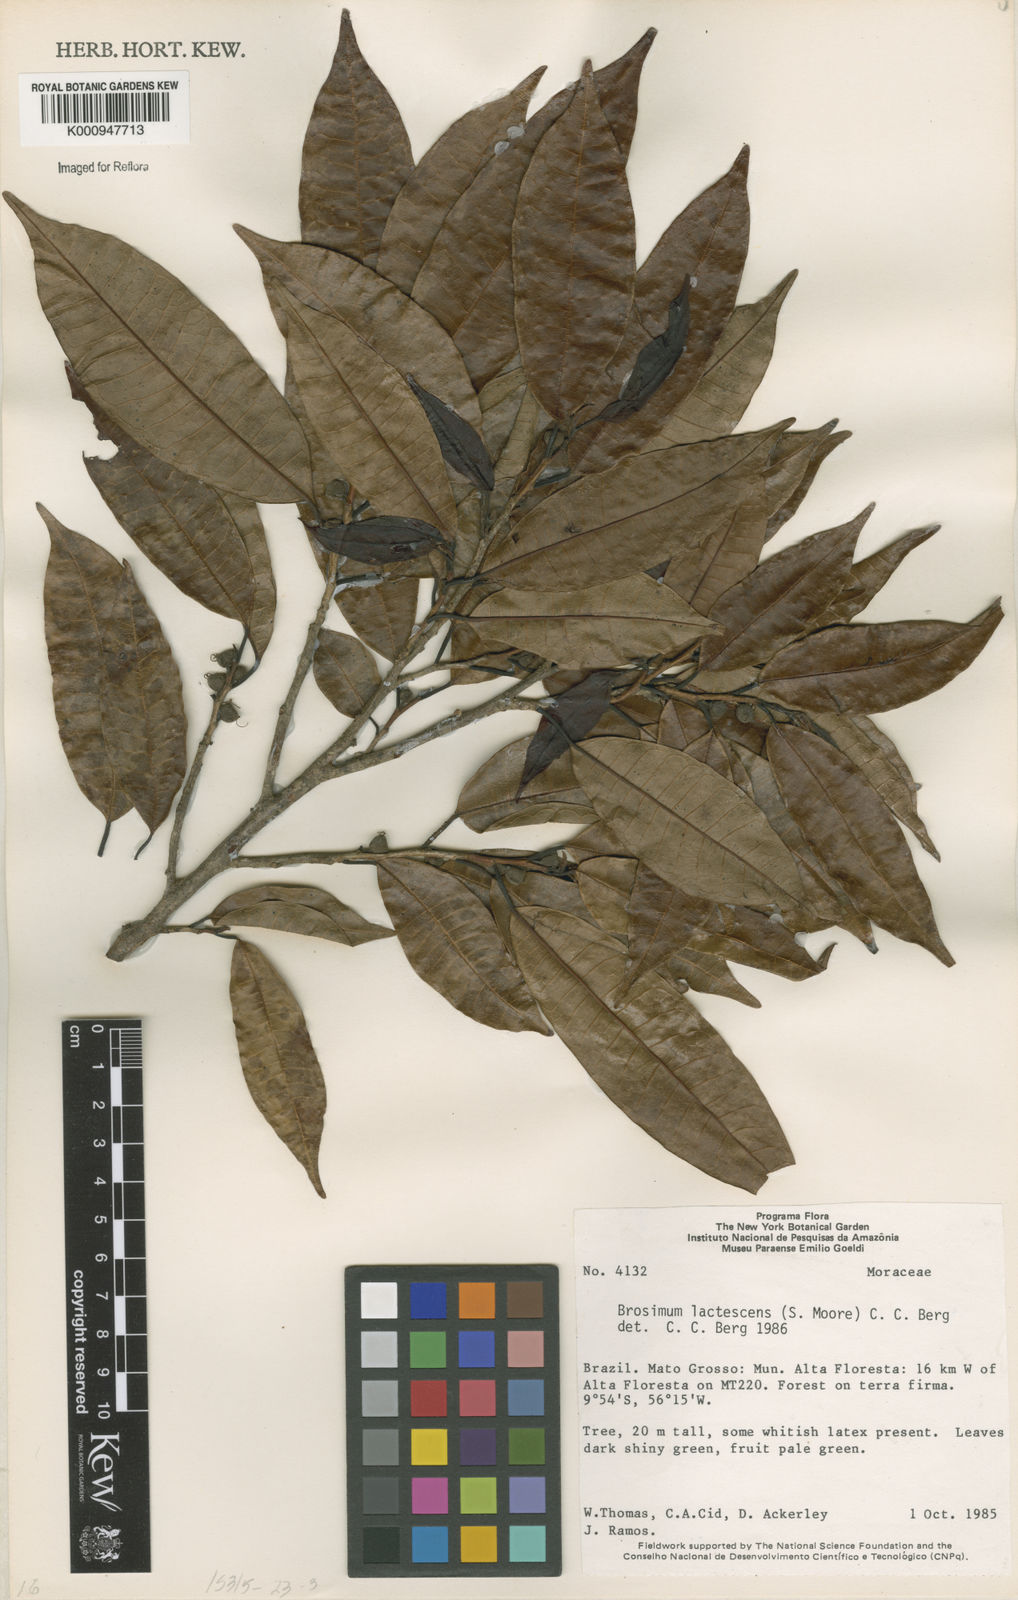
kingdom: Plantae
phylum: Tracheophyta
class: Magnoliopsida
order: Rosales
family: Moraceae
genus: Brosimum
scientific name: Brosimum lactescens
